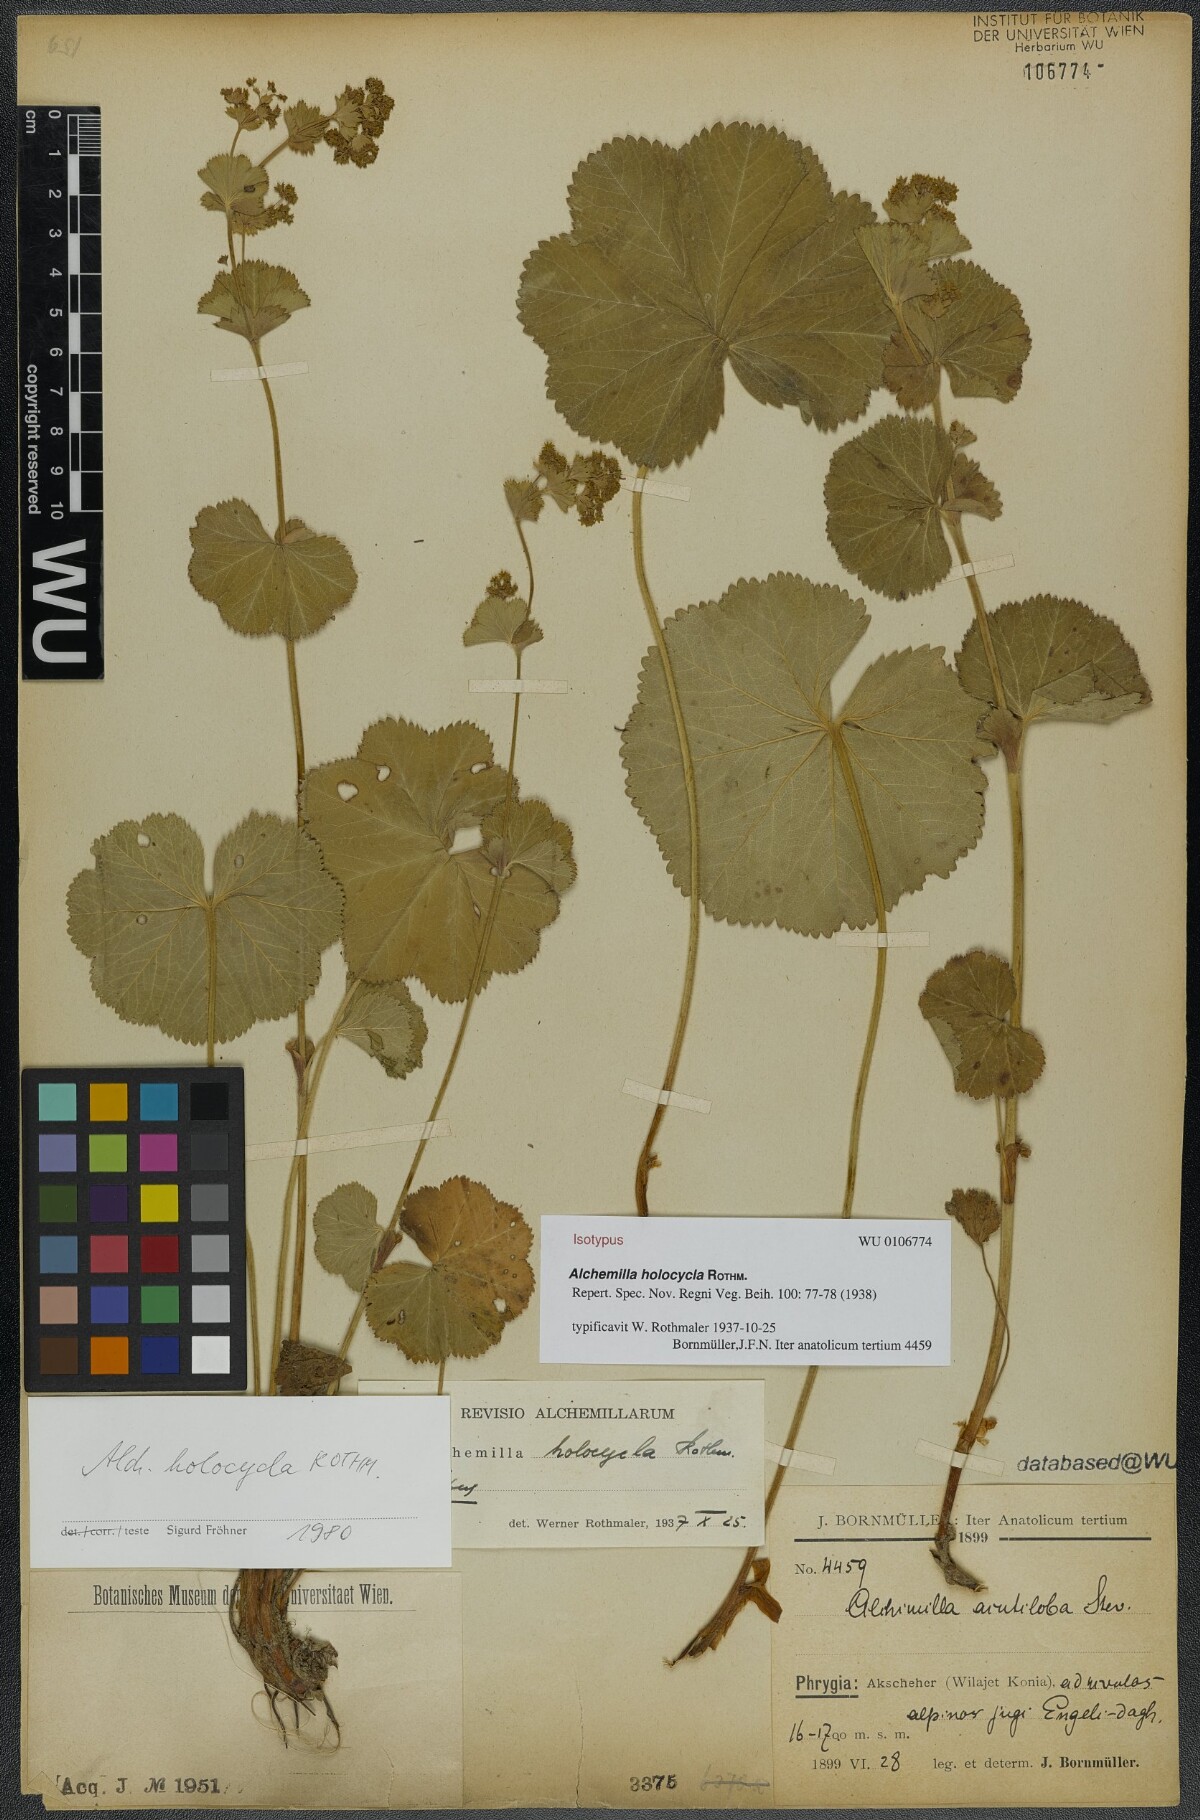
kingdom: Plantae
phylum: Tracheophyta
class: Magnoliopsida
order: Rosales
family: Rosaceae
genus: Alchemilla
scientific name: Alchemilla holocycla
